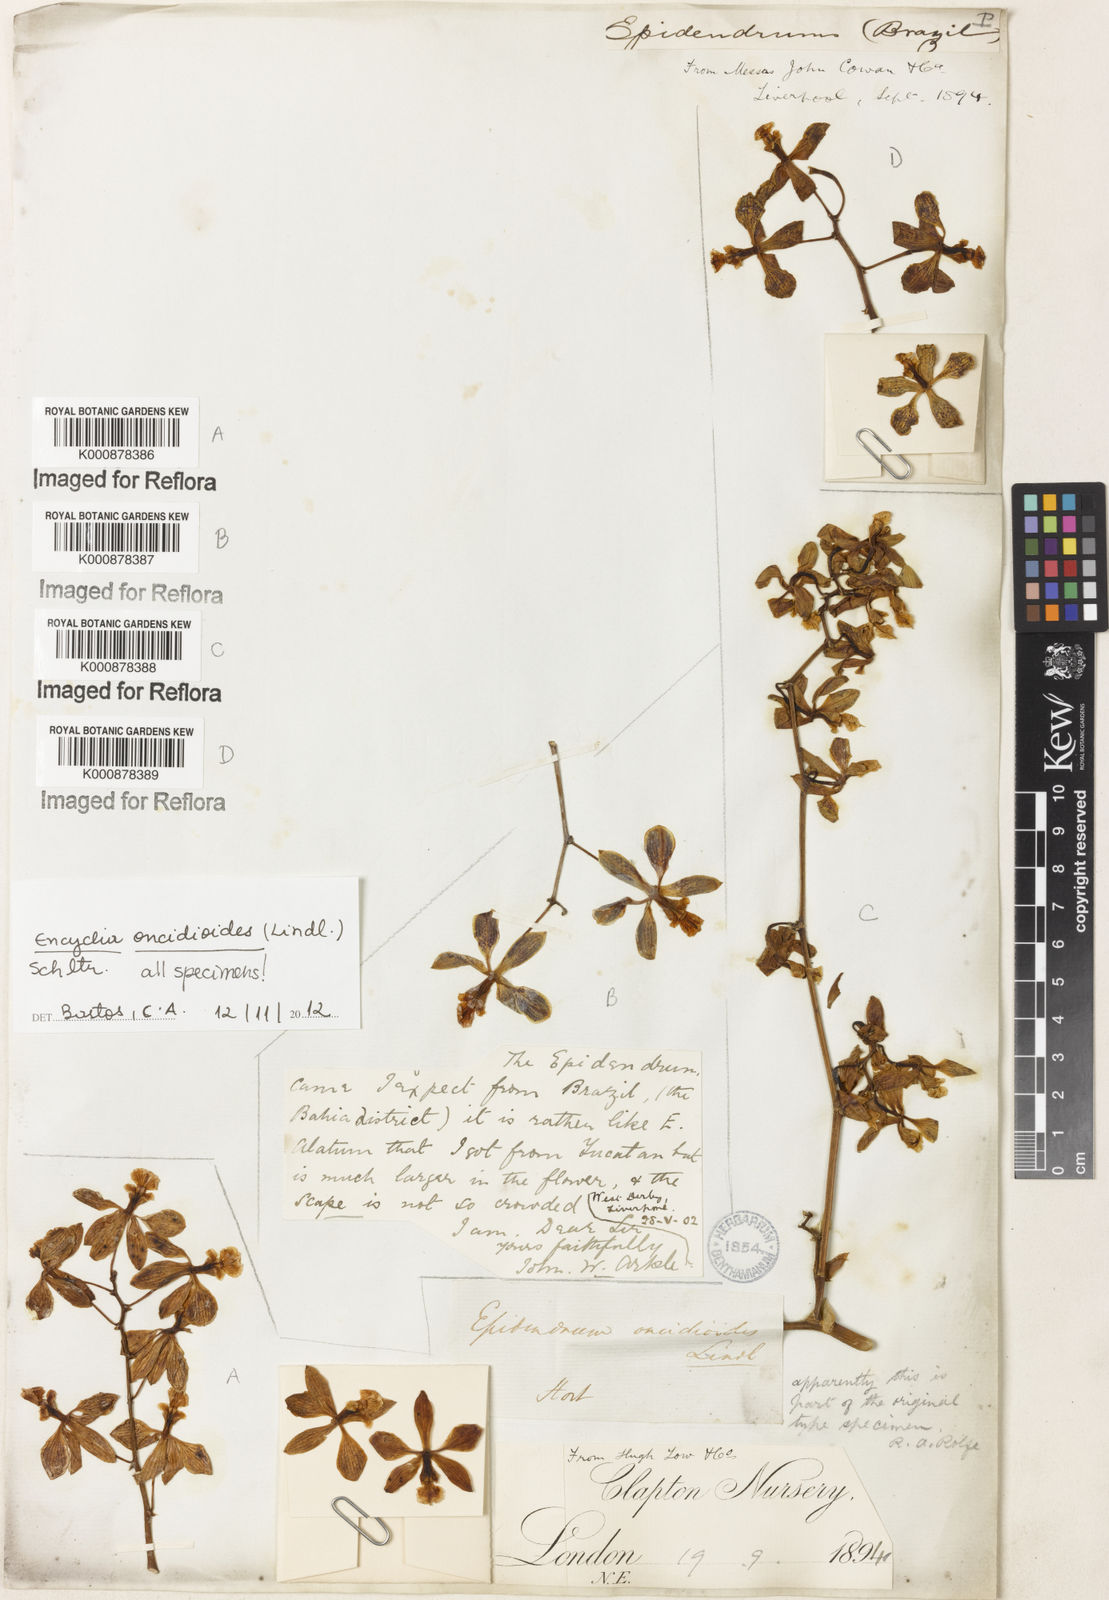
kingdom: Plantae
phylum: Tracheophyta
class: Liliopsida
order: Asparagales
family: Orchidaceae
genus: Encyclia
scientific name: Encyclia oncidioides
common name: Heavyfruit butterfly orchid
